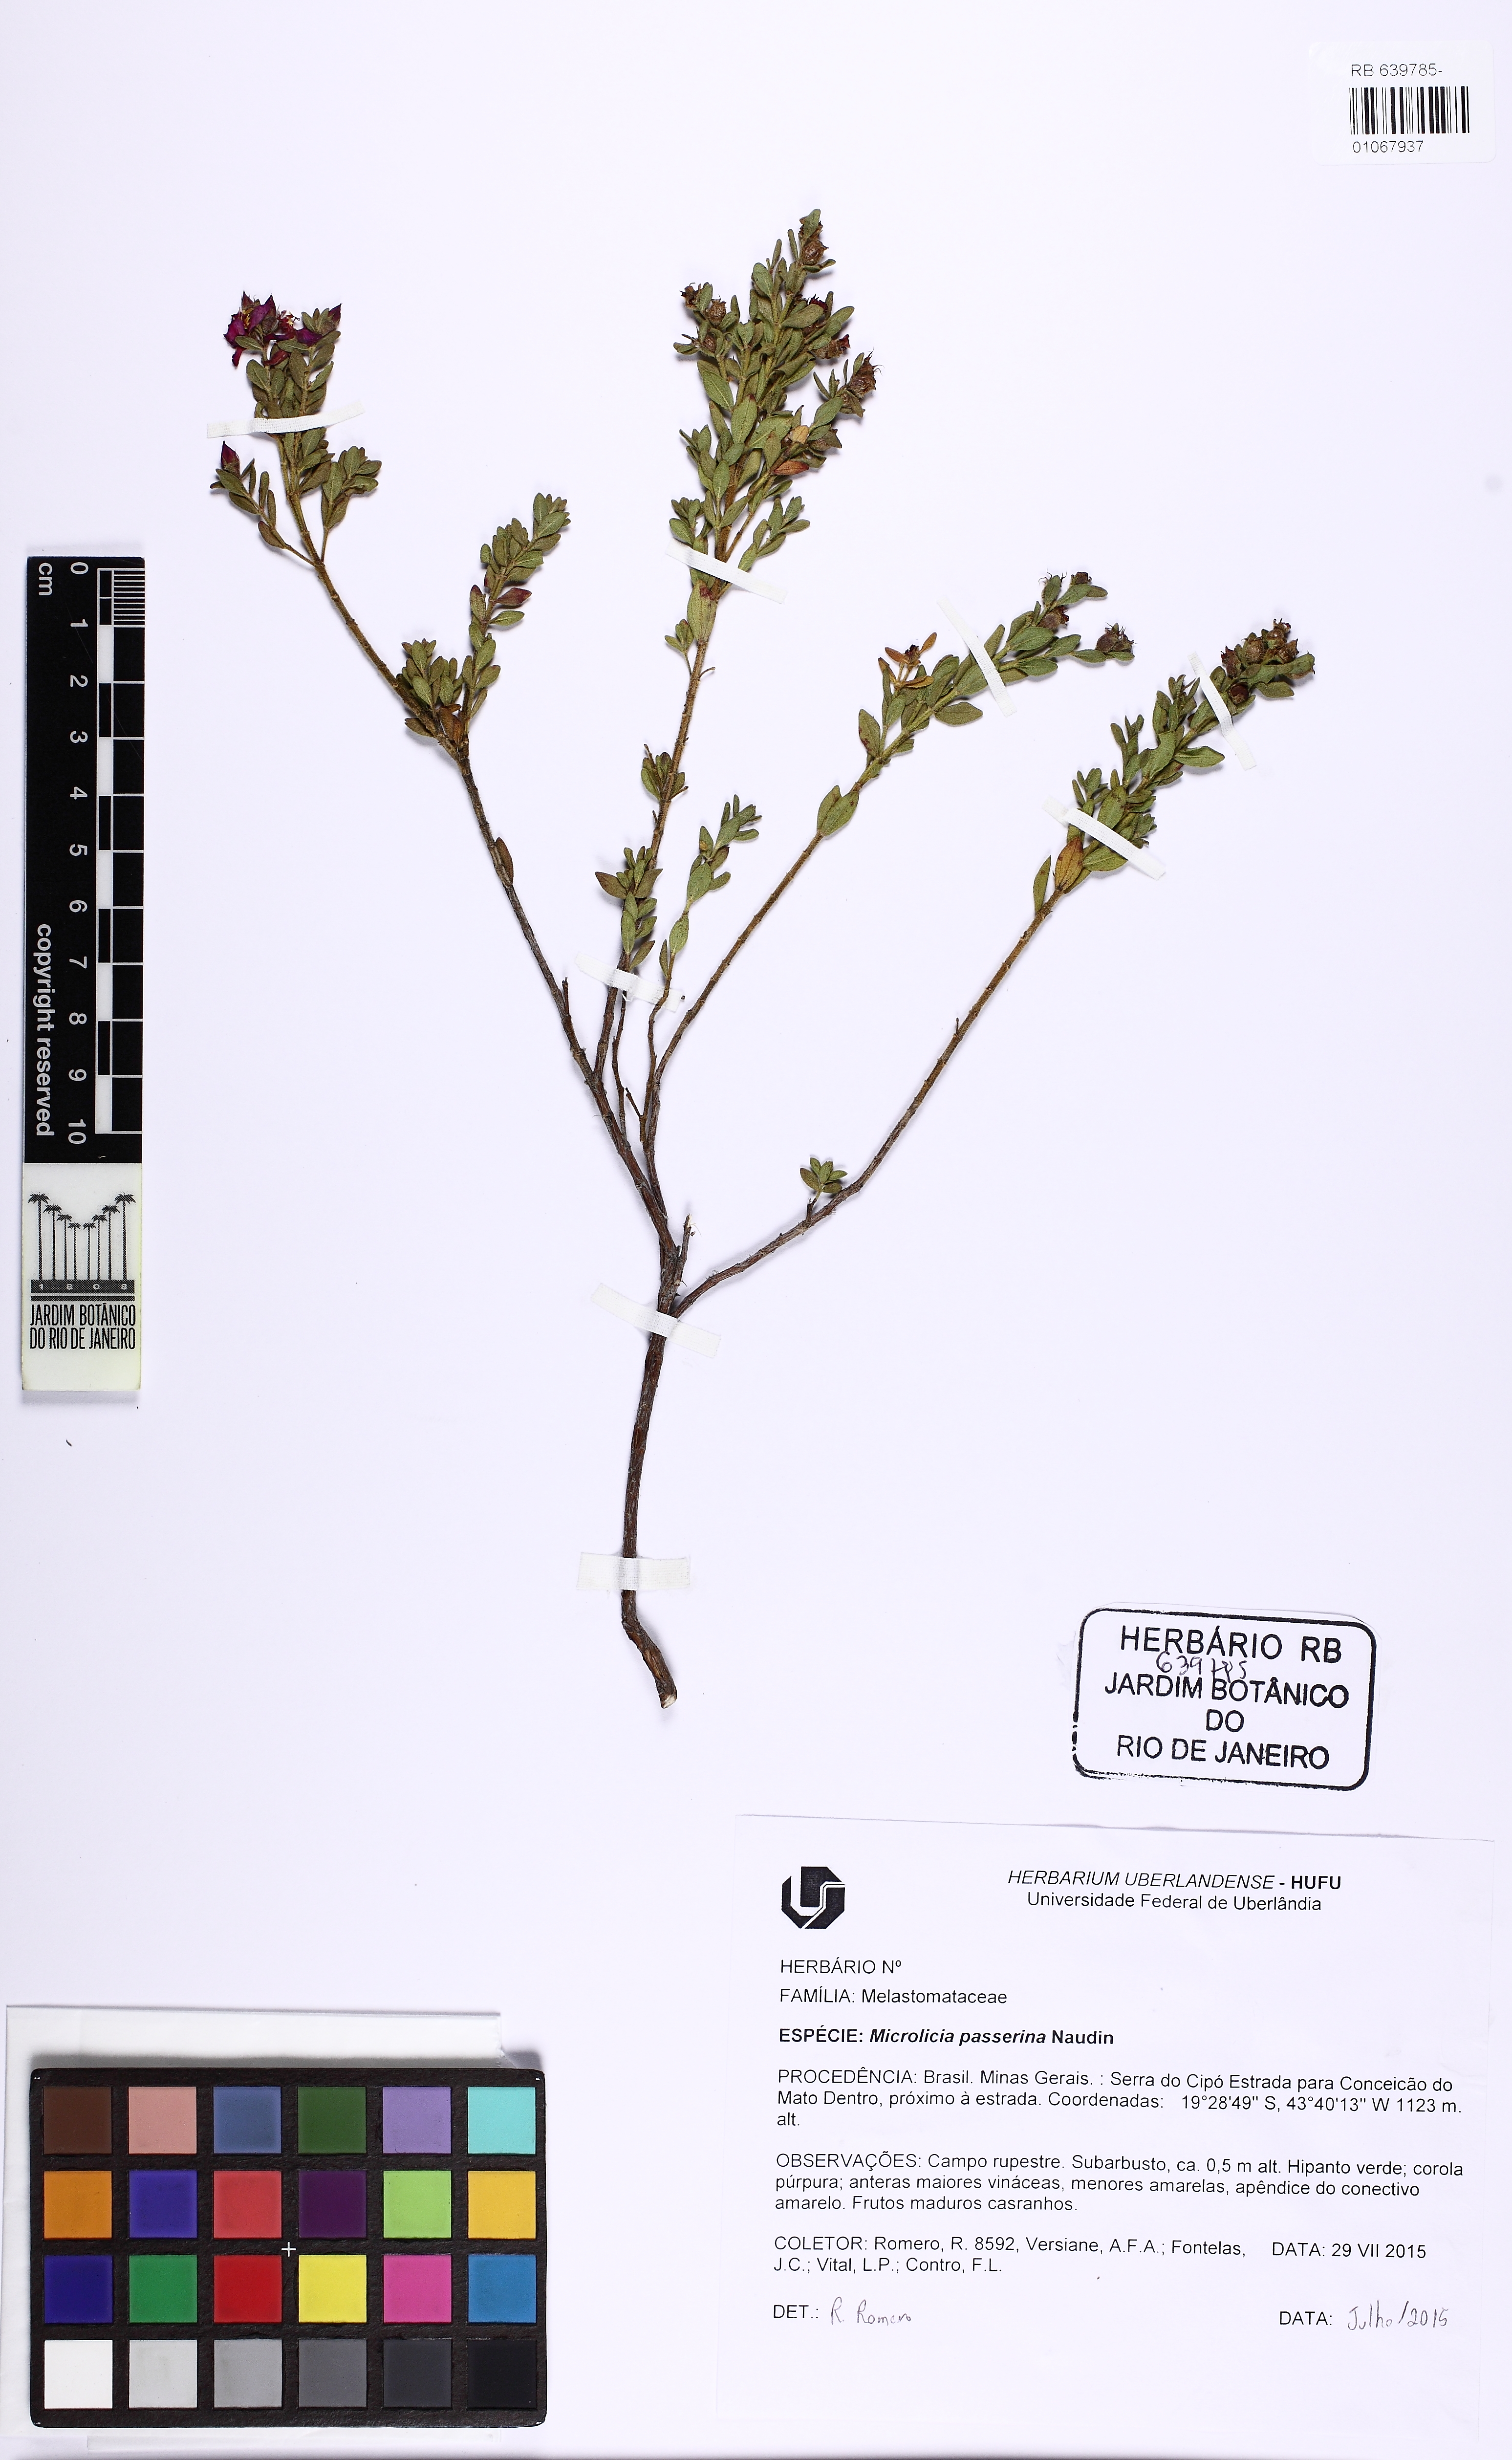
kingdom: Plantae
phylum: Tracheophyta
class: Magnoliopsida
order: Myrtales
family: Melastomataceae
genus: Microlicia
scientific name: Microlicia tomentella
